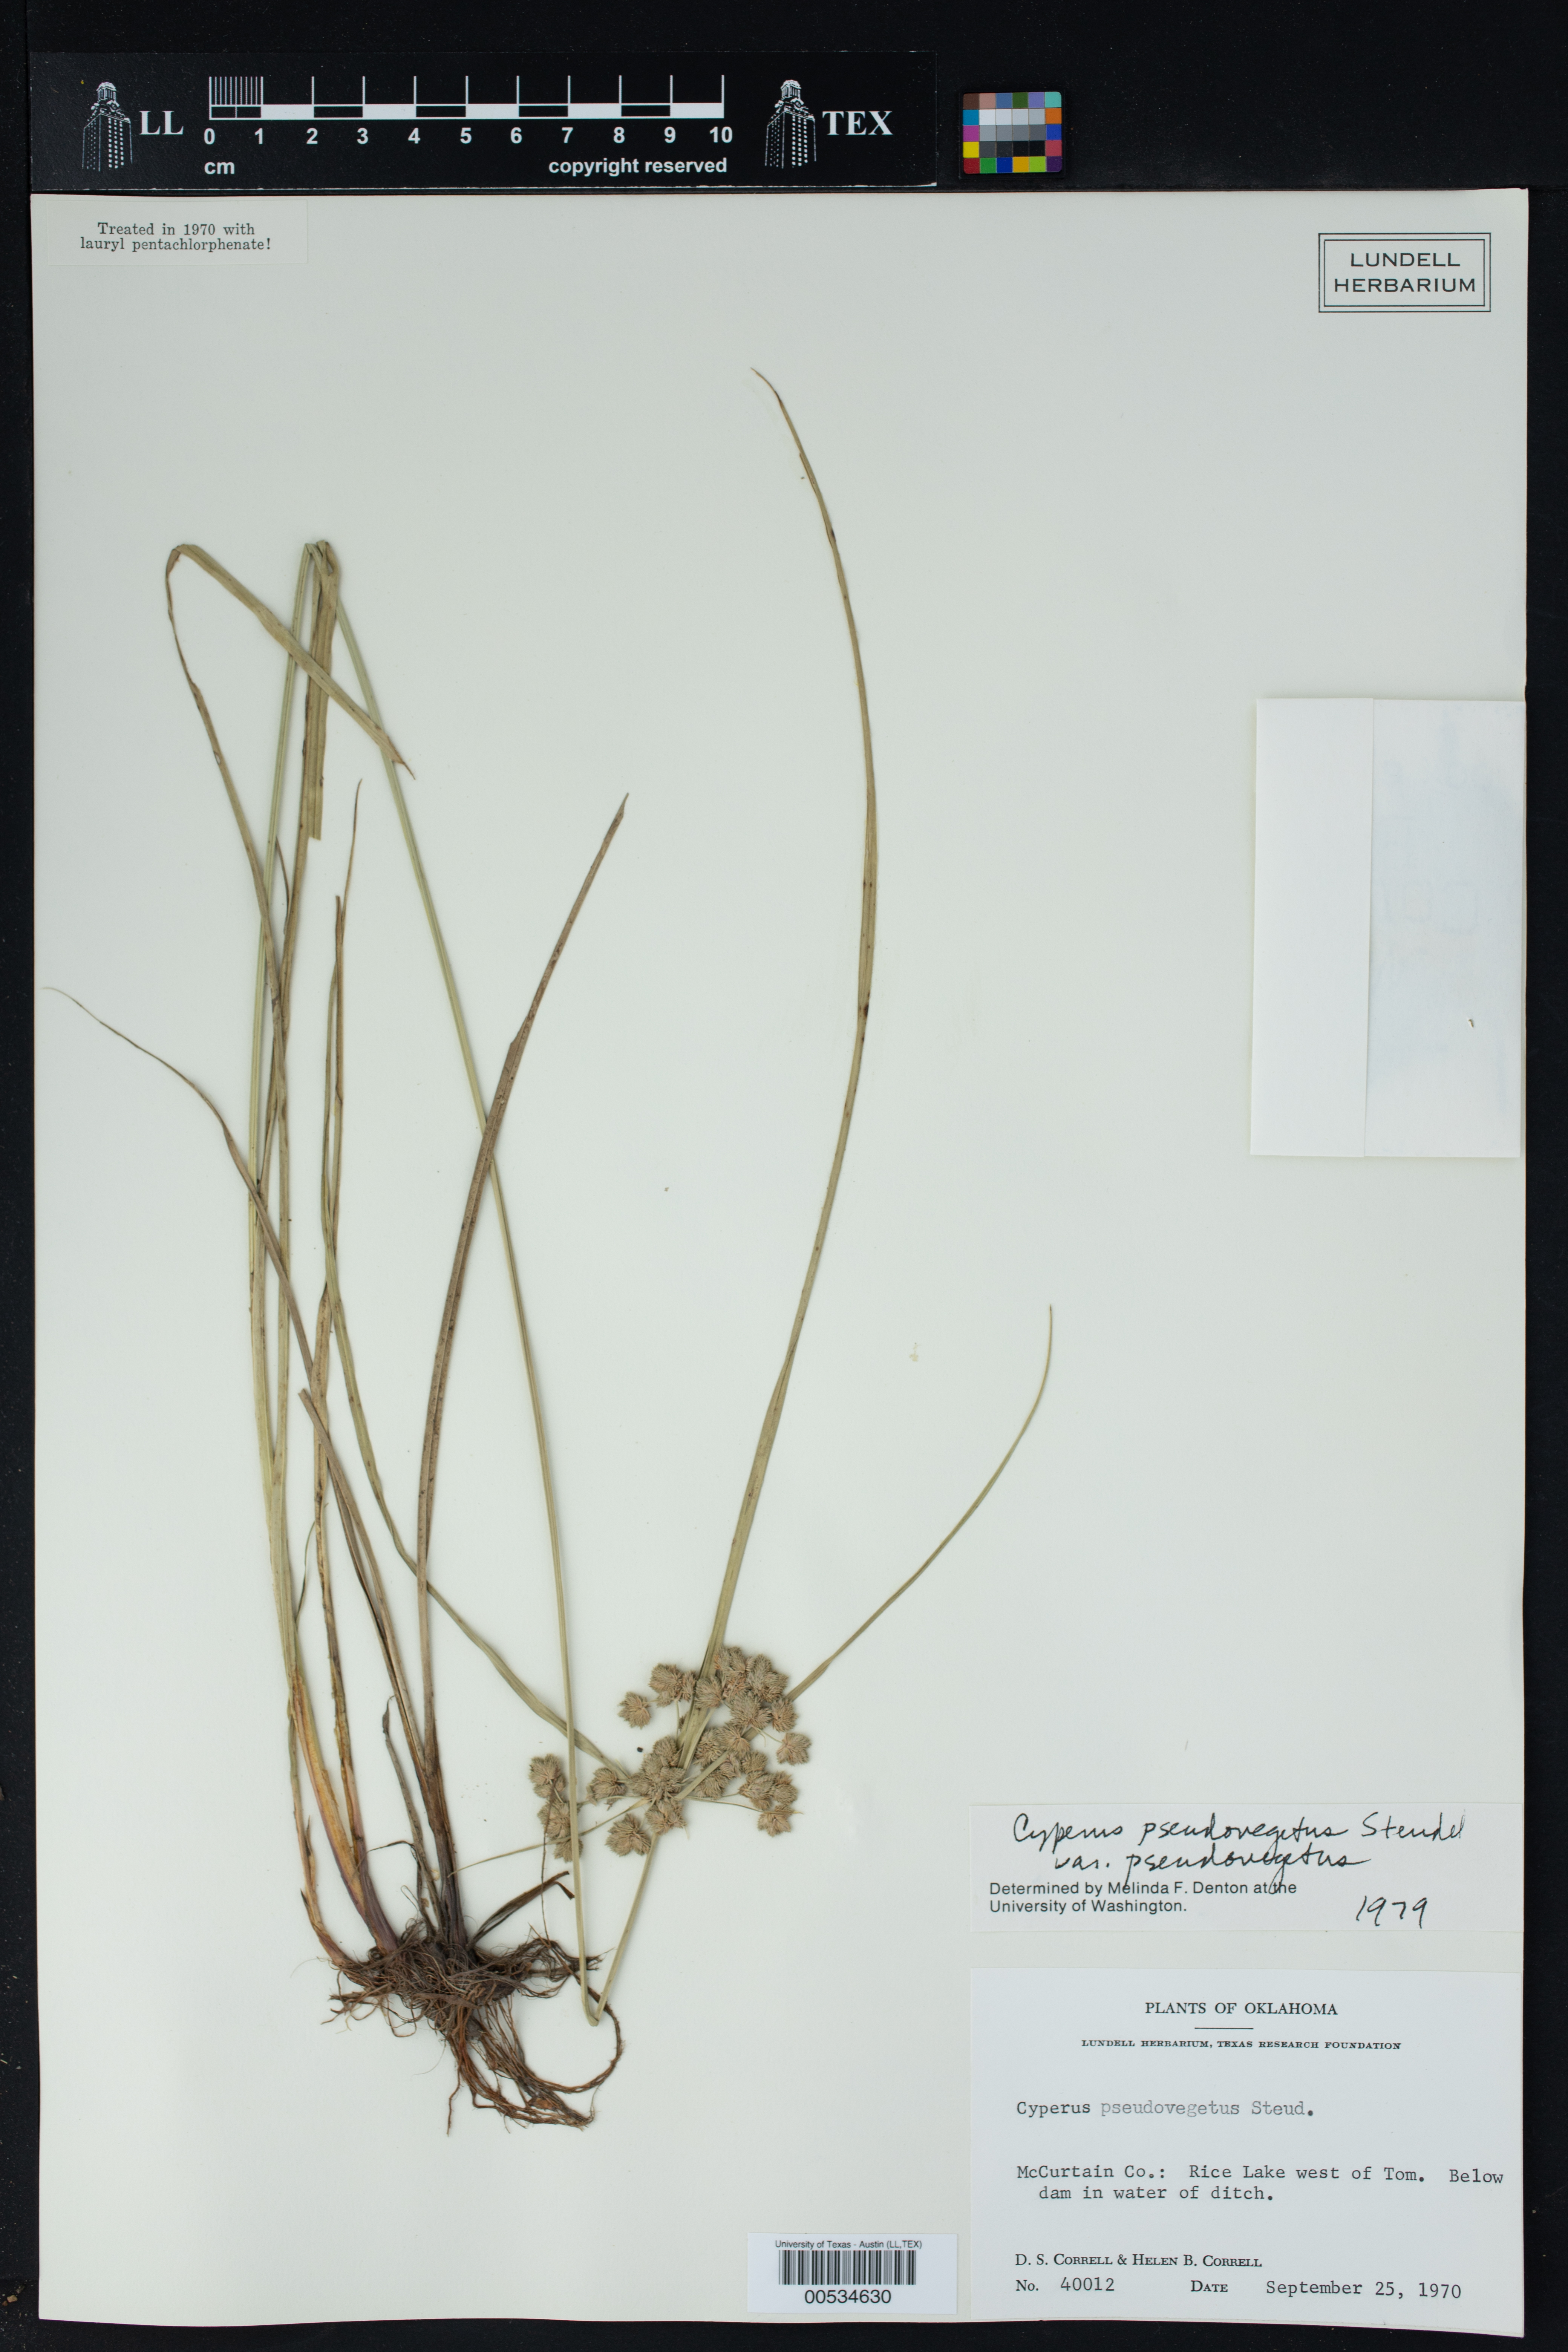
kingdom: Plantae
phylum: Tracheophyta
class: Liliopsida
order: Poales
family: Cyperaceae
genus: Cyperus
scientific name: Cyperus pseudovegetus
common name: Marsh flat sedge
